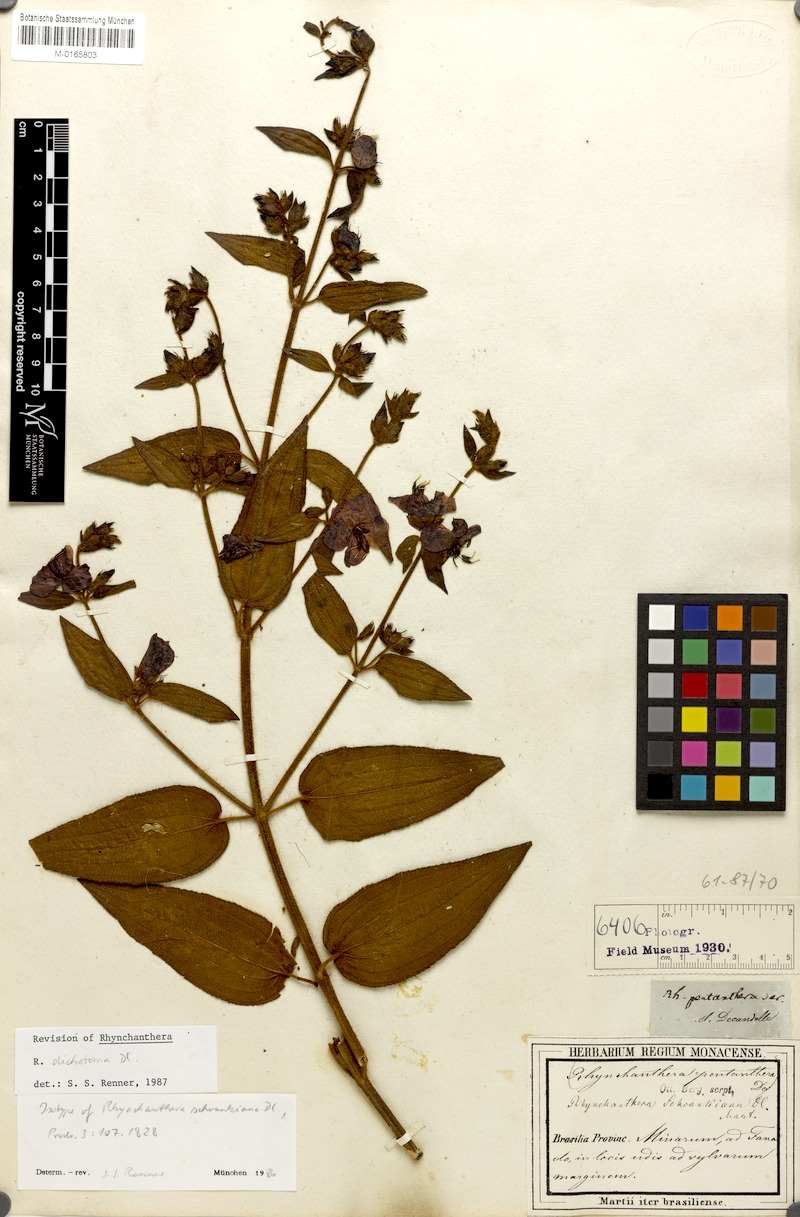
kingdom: Plantae
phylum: Tracheophyta
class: Magnoliopsida
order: Myrtales
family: Melastomataceae
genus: Rhynchanthera
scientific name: Rhynchanthera dichotoma
